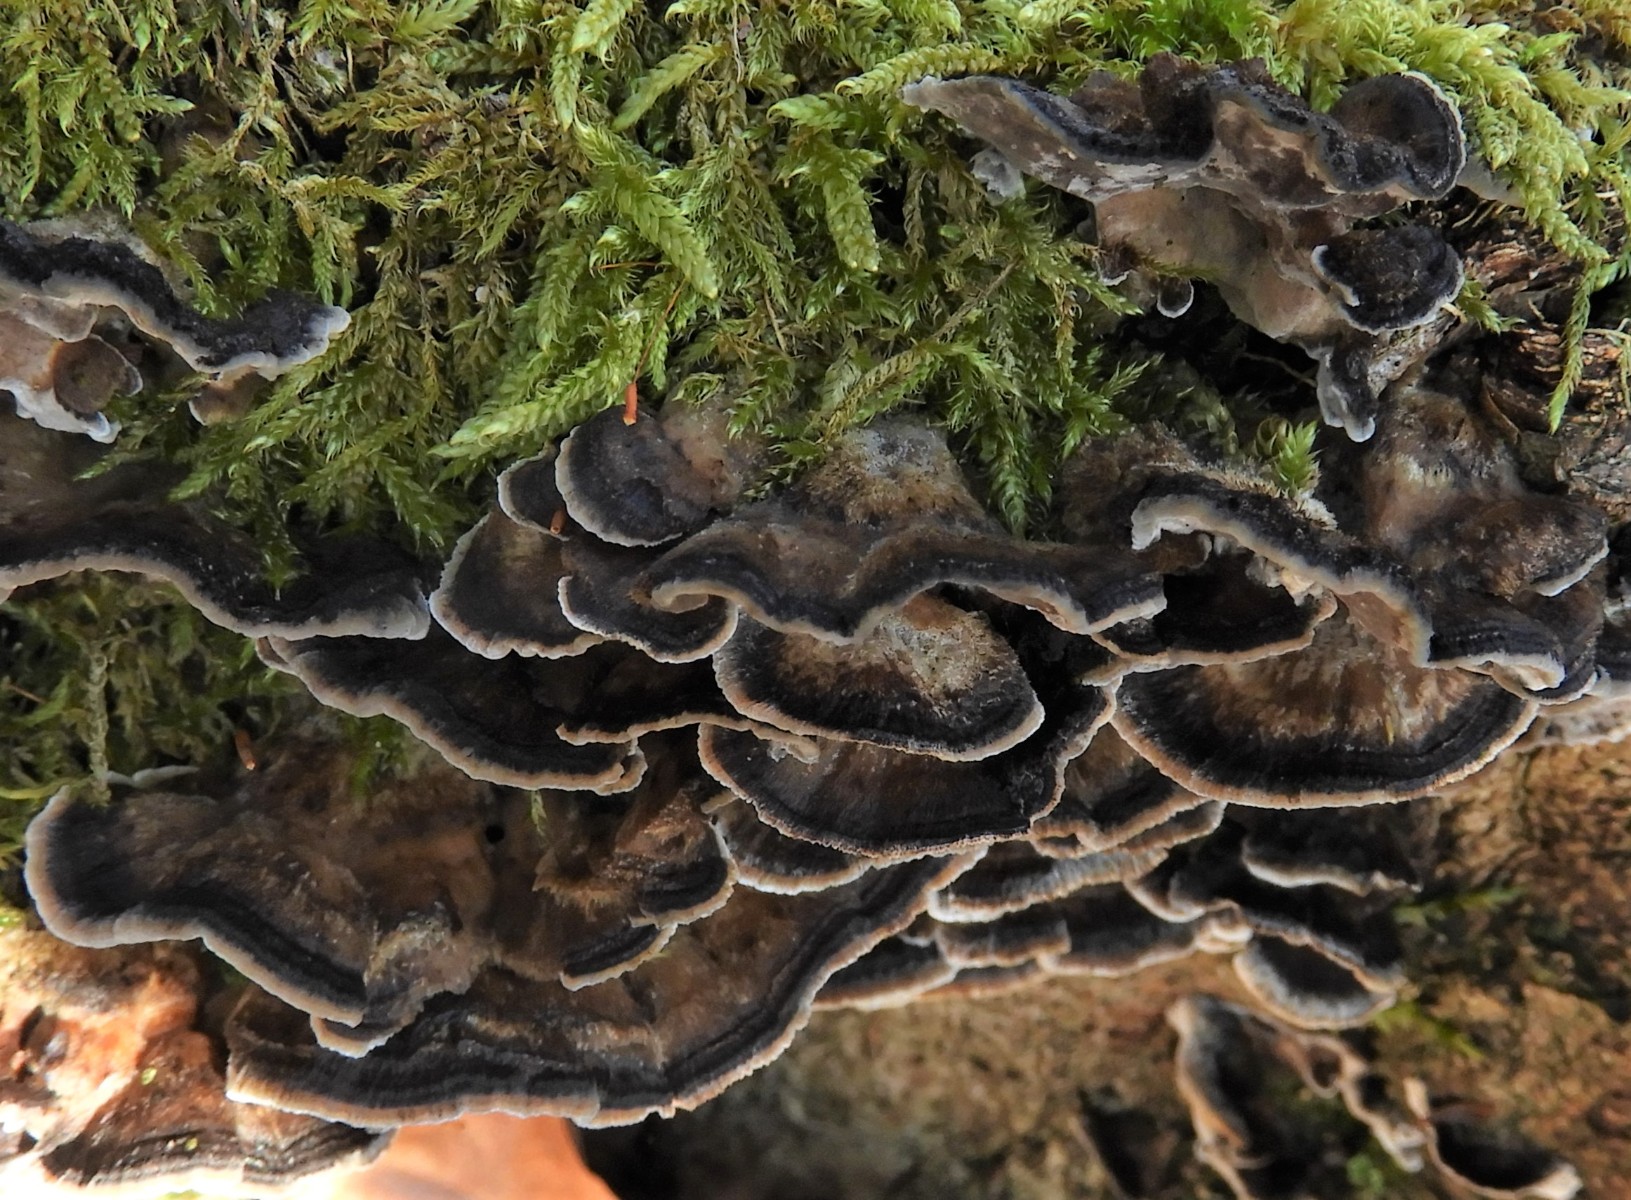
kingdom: Fungi
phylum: Basidiomycota
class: Agaricomycetes
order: Polyporales
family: Phanerochaetaceae
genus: Bjerkandera
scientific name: Bjerkandera adusta
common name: sveden sodporesvamp
